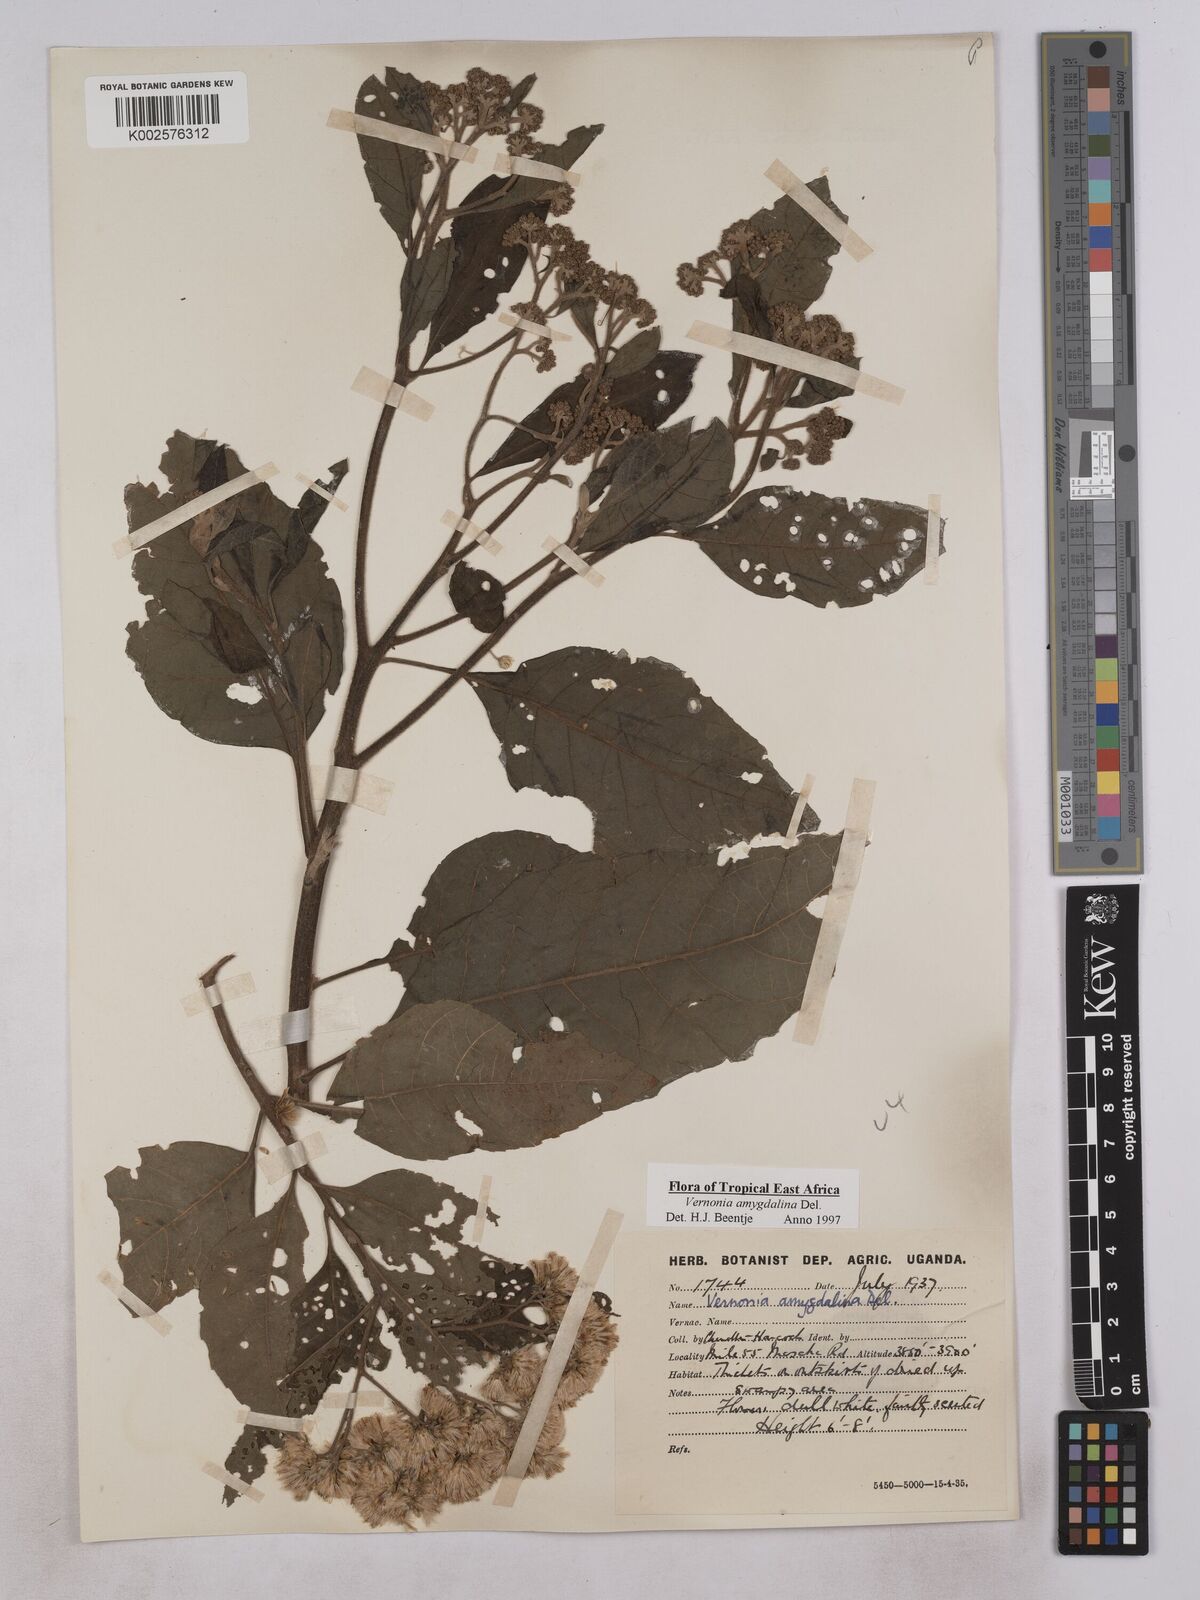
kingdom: Plantae
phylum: Tracheophyta
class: Magnoliopsida
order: Asterales
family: Asteraceae
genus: Gymnanthemum
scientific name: Gymnanthemum amygdalinum
